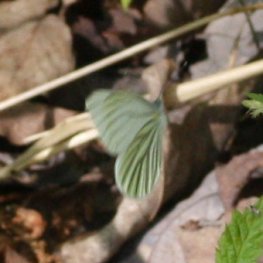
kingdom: Animalia
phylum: Arthropoda
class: Insecta
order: Lepidoptera
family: Pieridae
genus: Pieris
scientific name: Pieris oleracea
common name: Mustard White
